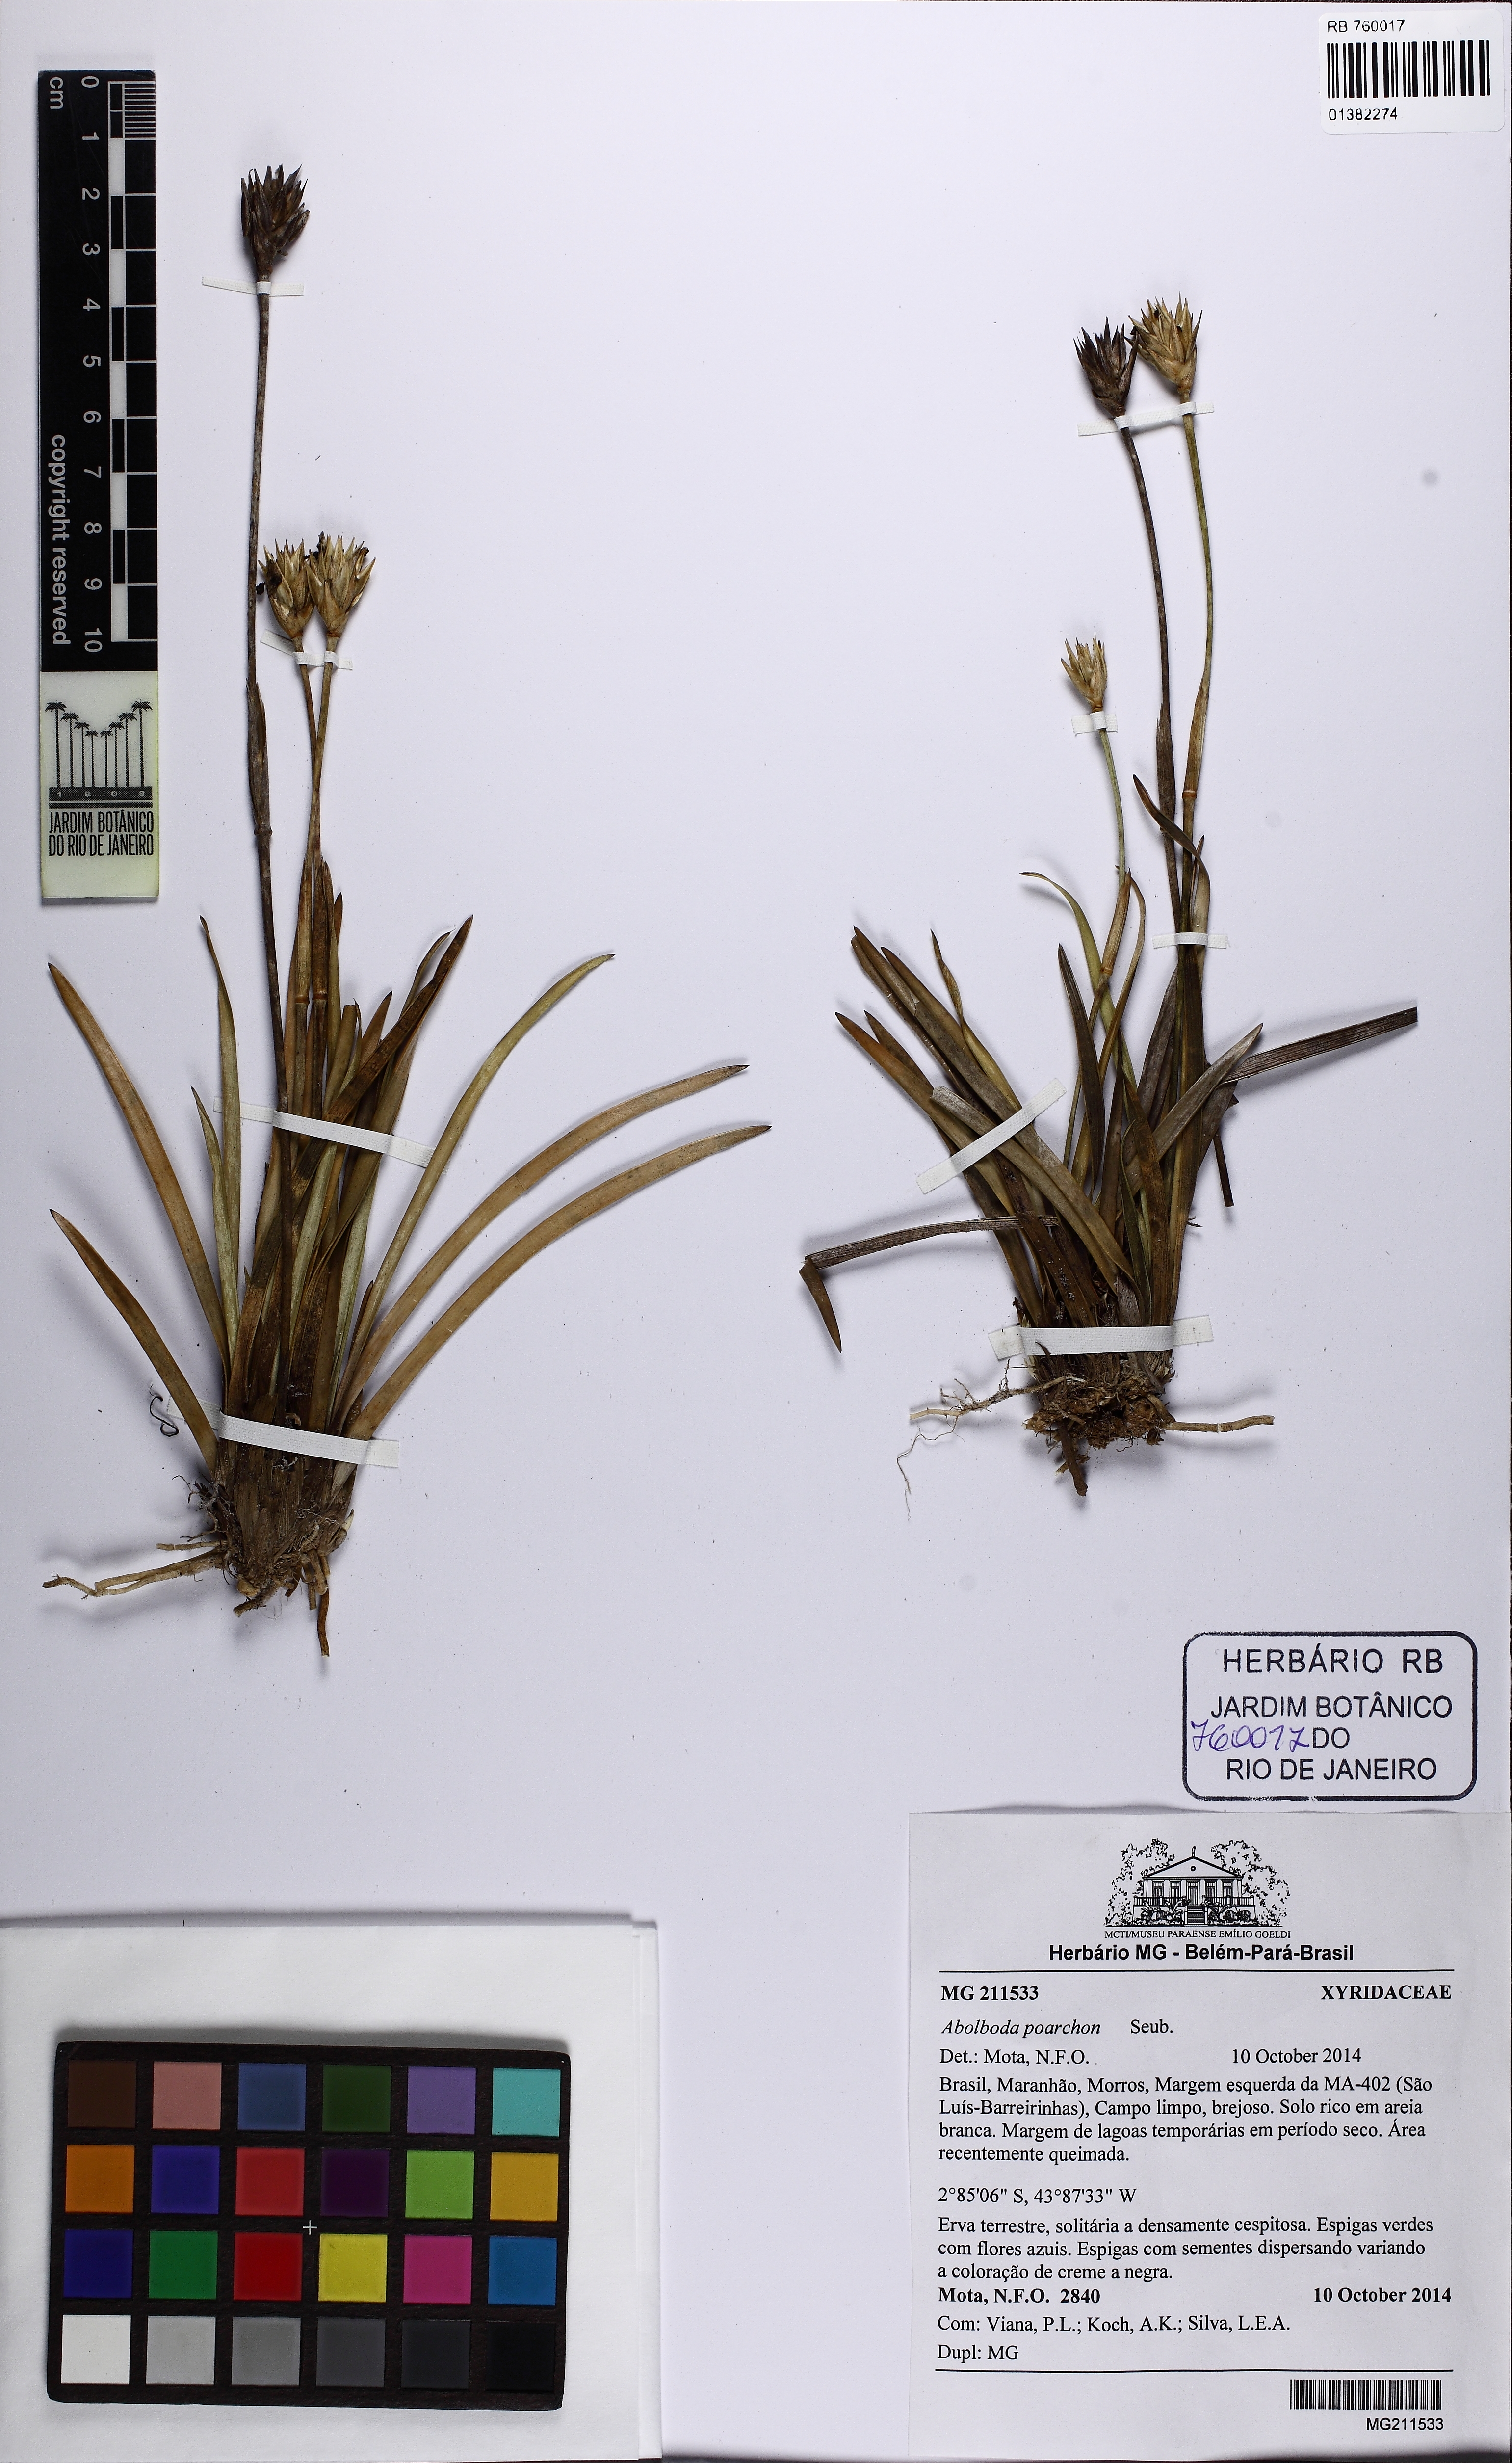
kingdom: Plantae
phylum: Tracheophyta
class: Liliopsida
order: Poales
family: Xyridaceae
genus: Abolboda
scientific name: Abolboda poarchon
